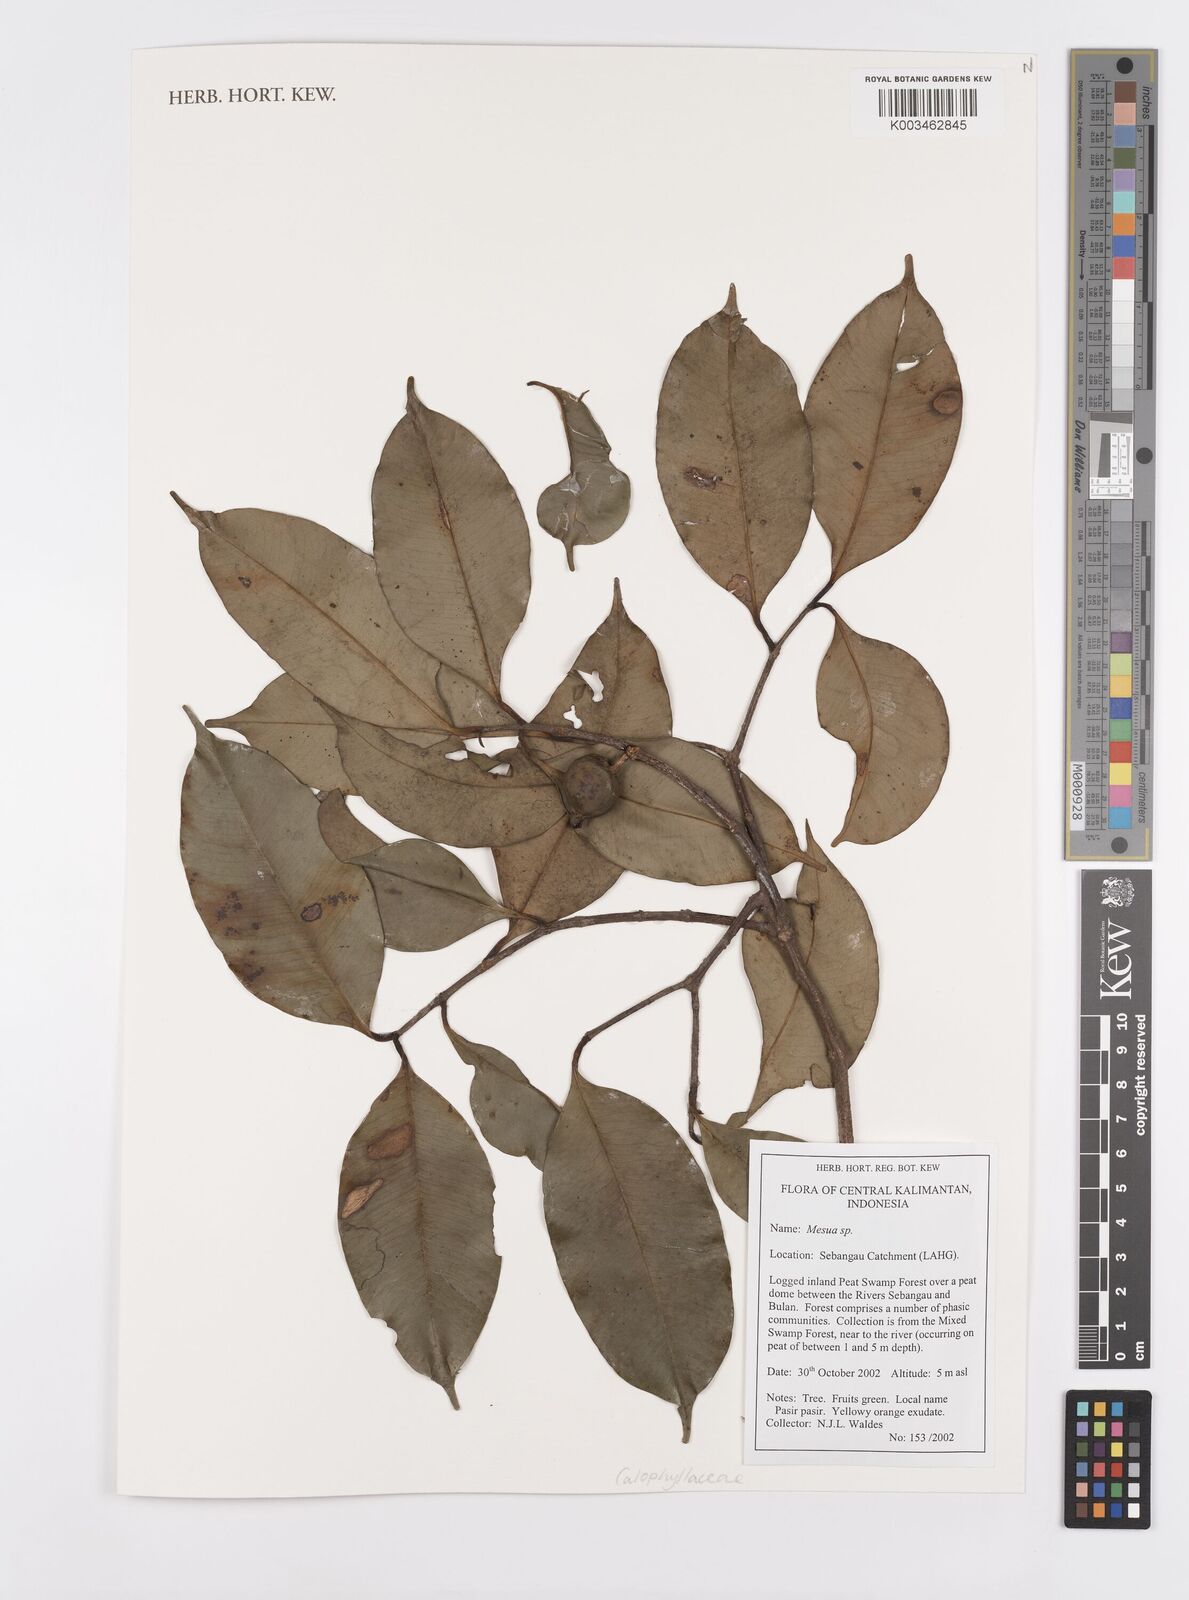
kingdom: Plantae
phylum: Tracheophyta
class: Magnoliopsida
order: Malpighiales
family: Calophyllaceae
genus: Mesua
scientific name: Mesua
